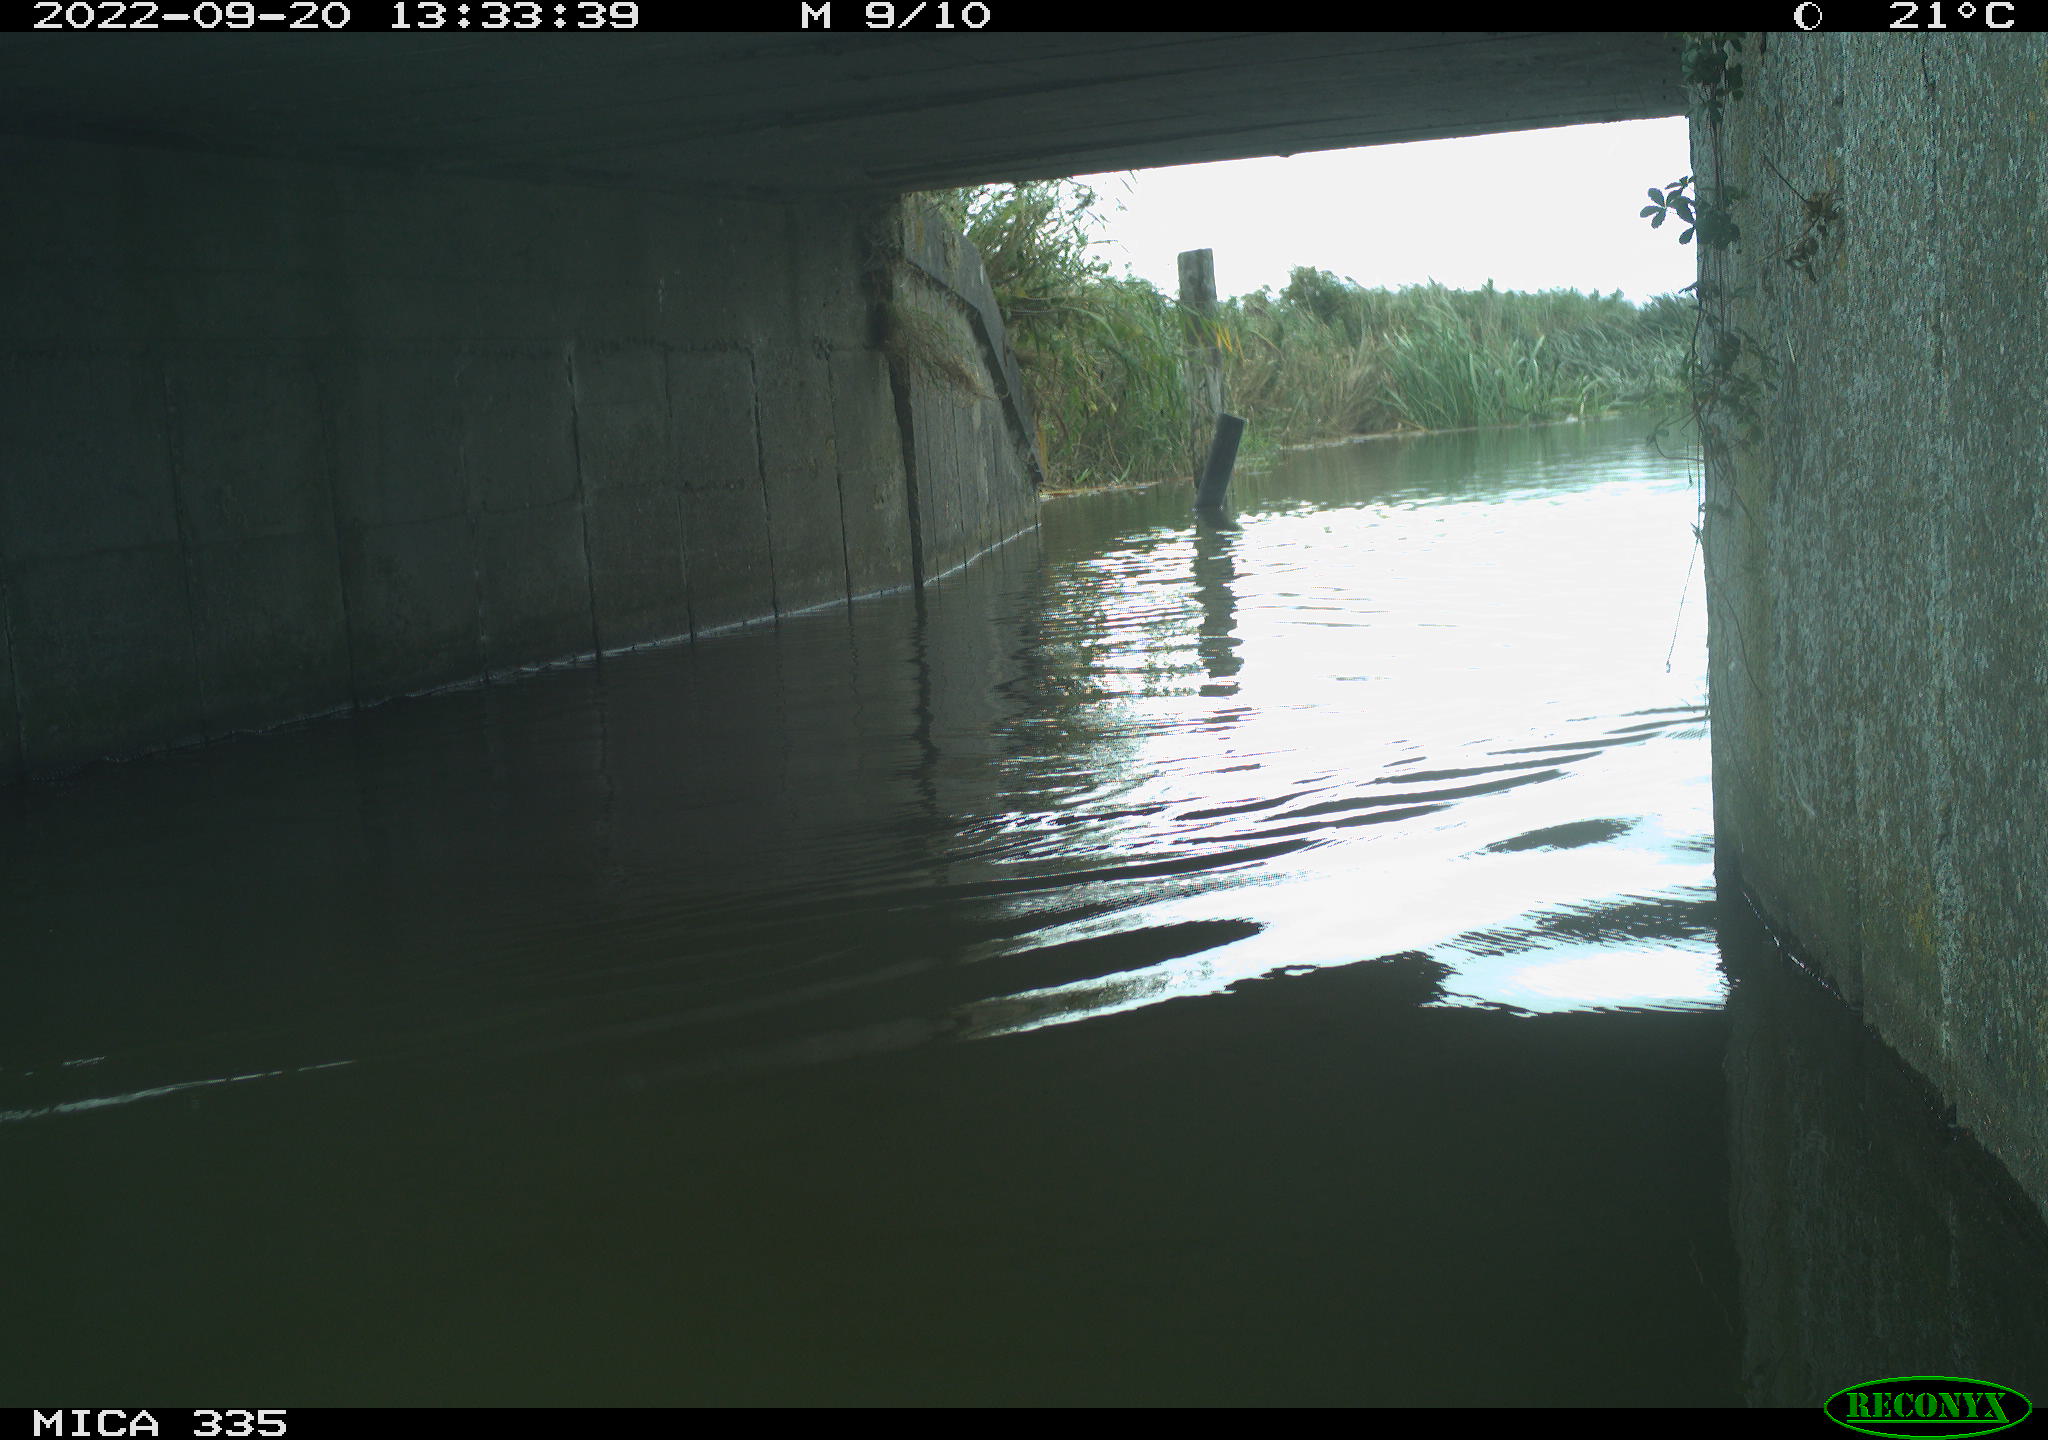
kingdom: Animalia
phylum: Chordata
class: Aves
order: Anseriformes
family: Anatidae
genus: Cygnus
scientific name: Cygnus olor
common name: Mute swan
